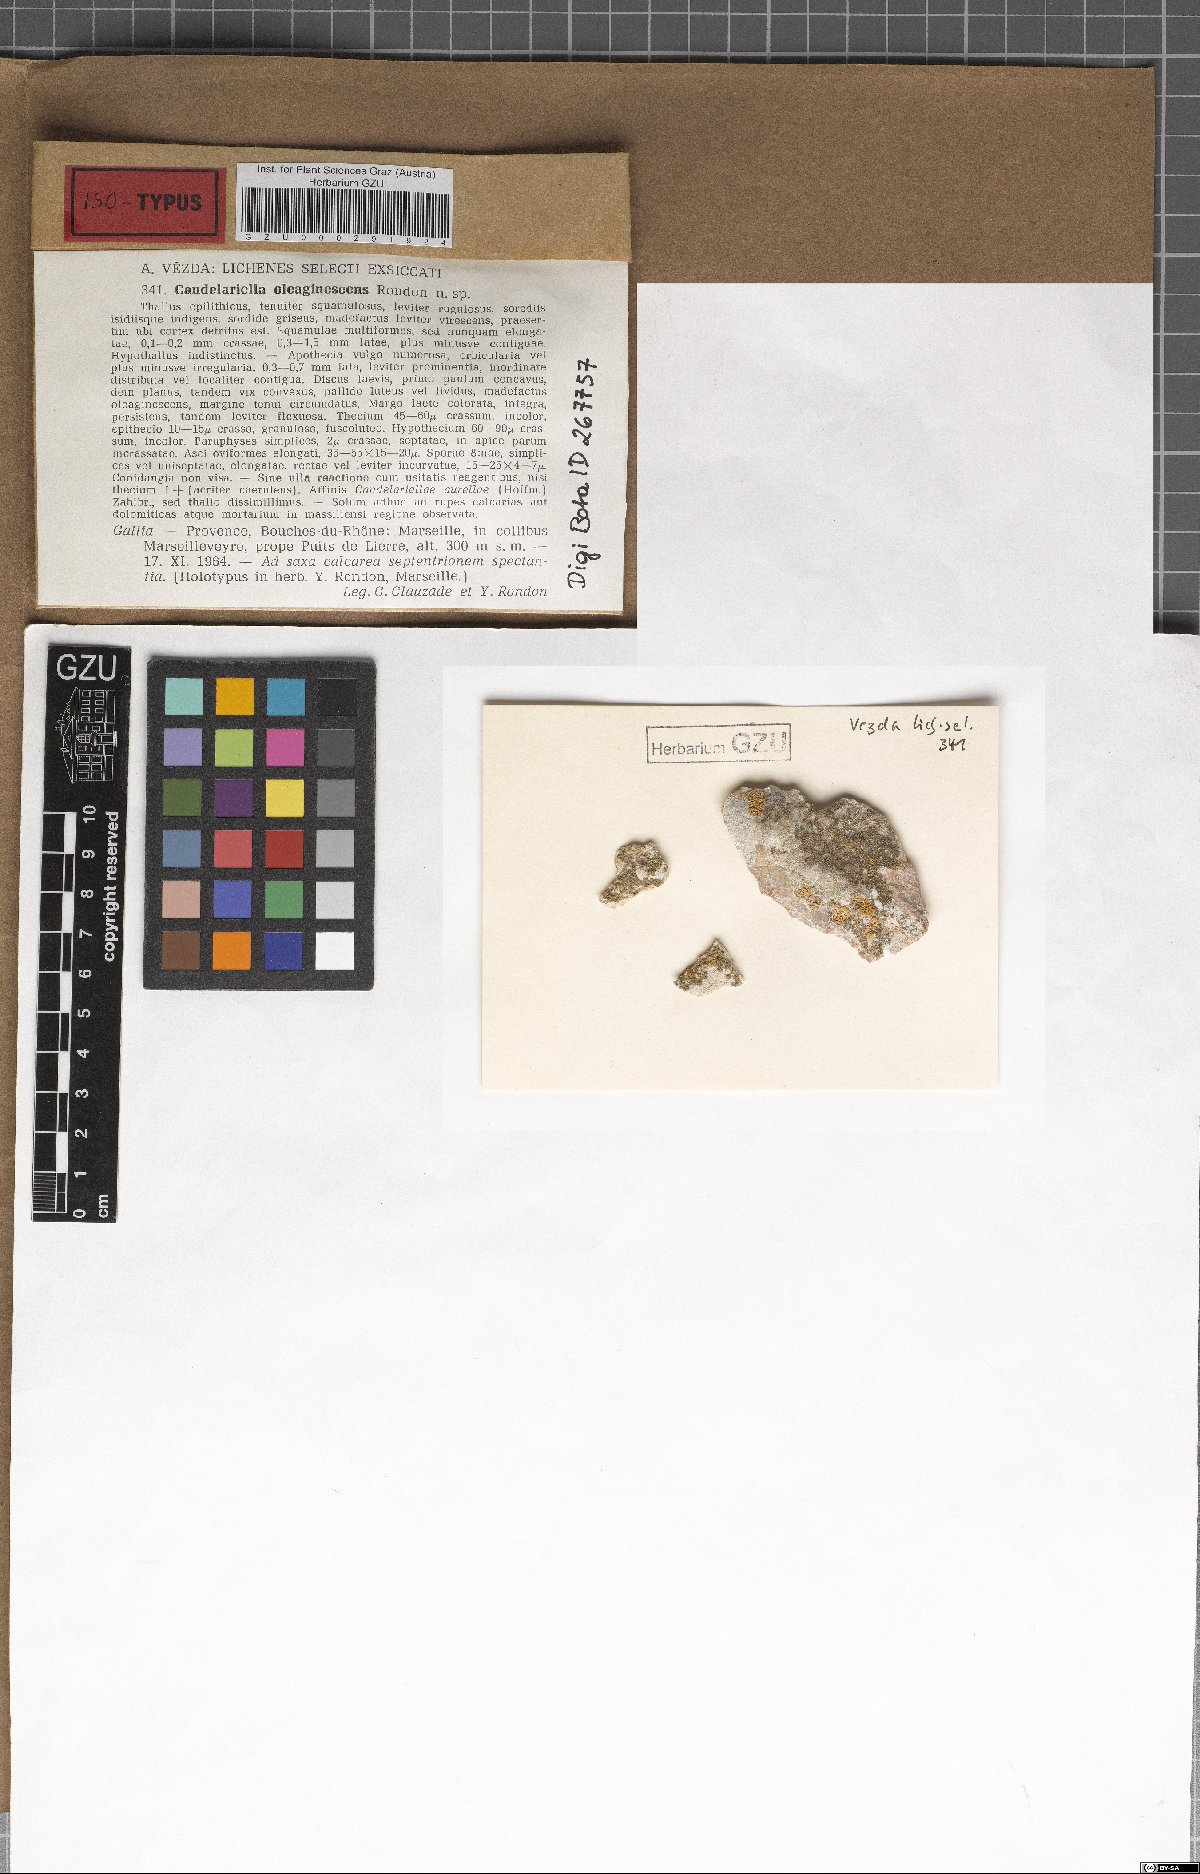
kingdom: Fungi
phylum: Ascomycota
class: Candelariomycetes
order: Candelariales
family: Candelariaceae
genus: Candelariella
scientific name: Candelariella oleaginescens
